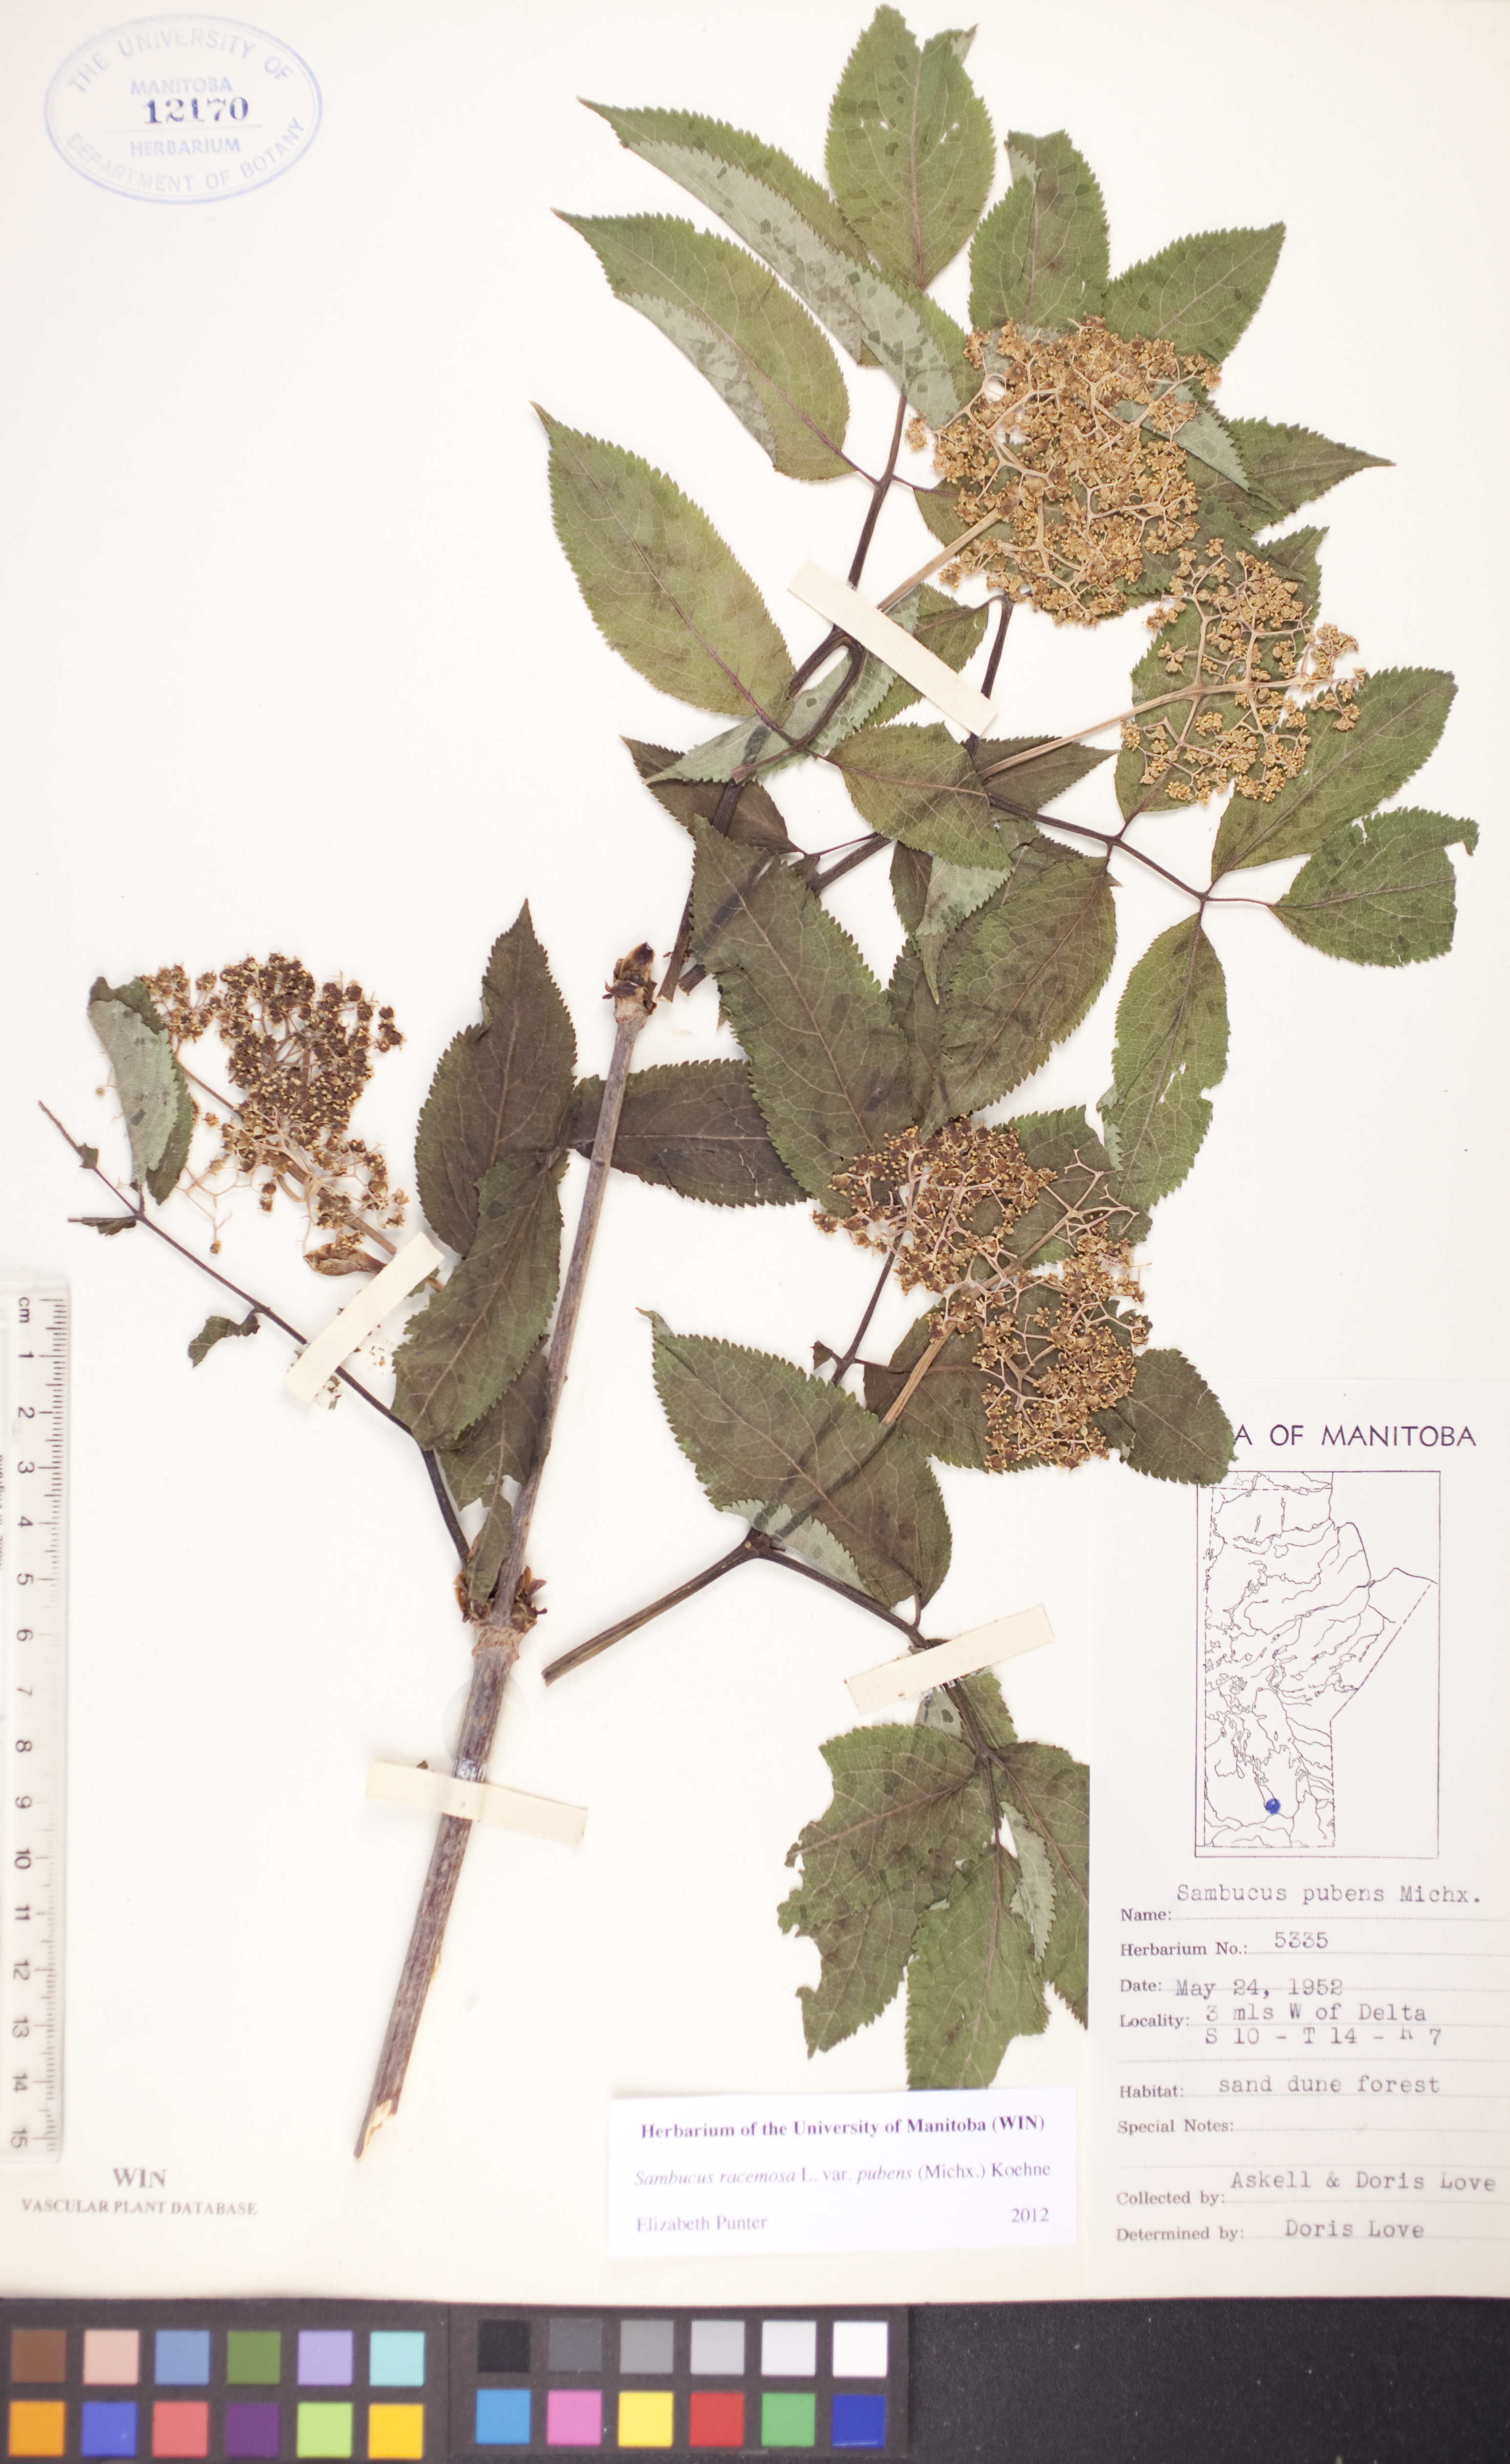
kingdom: Plantae
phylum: Tracheophyta
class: Magnoliopsida
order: Dipsacales
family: Viburnaceae
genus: Sambucus
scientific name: Sambucus racemosa
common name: Red-berried elder
